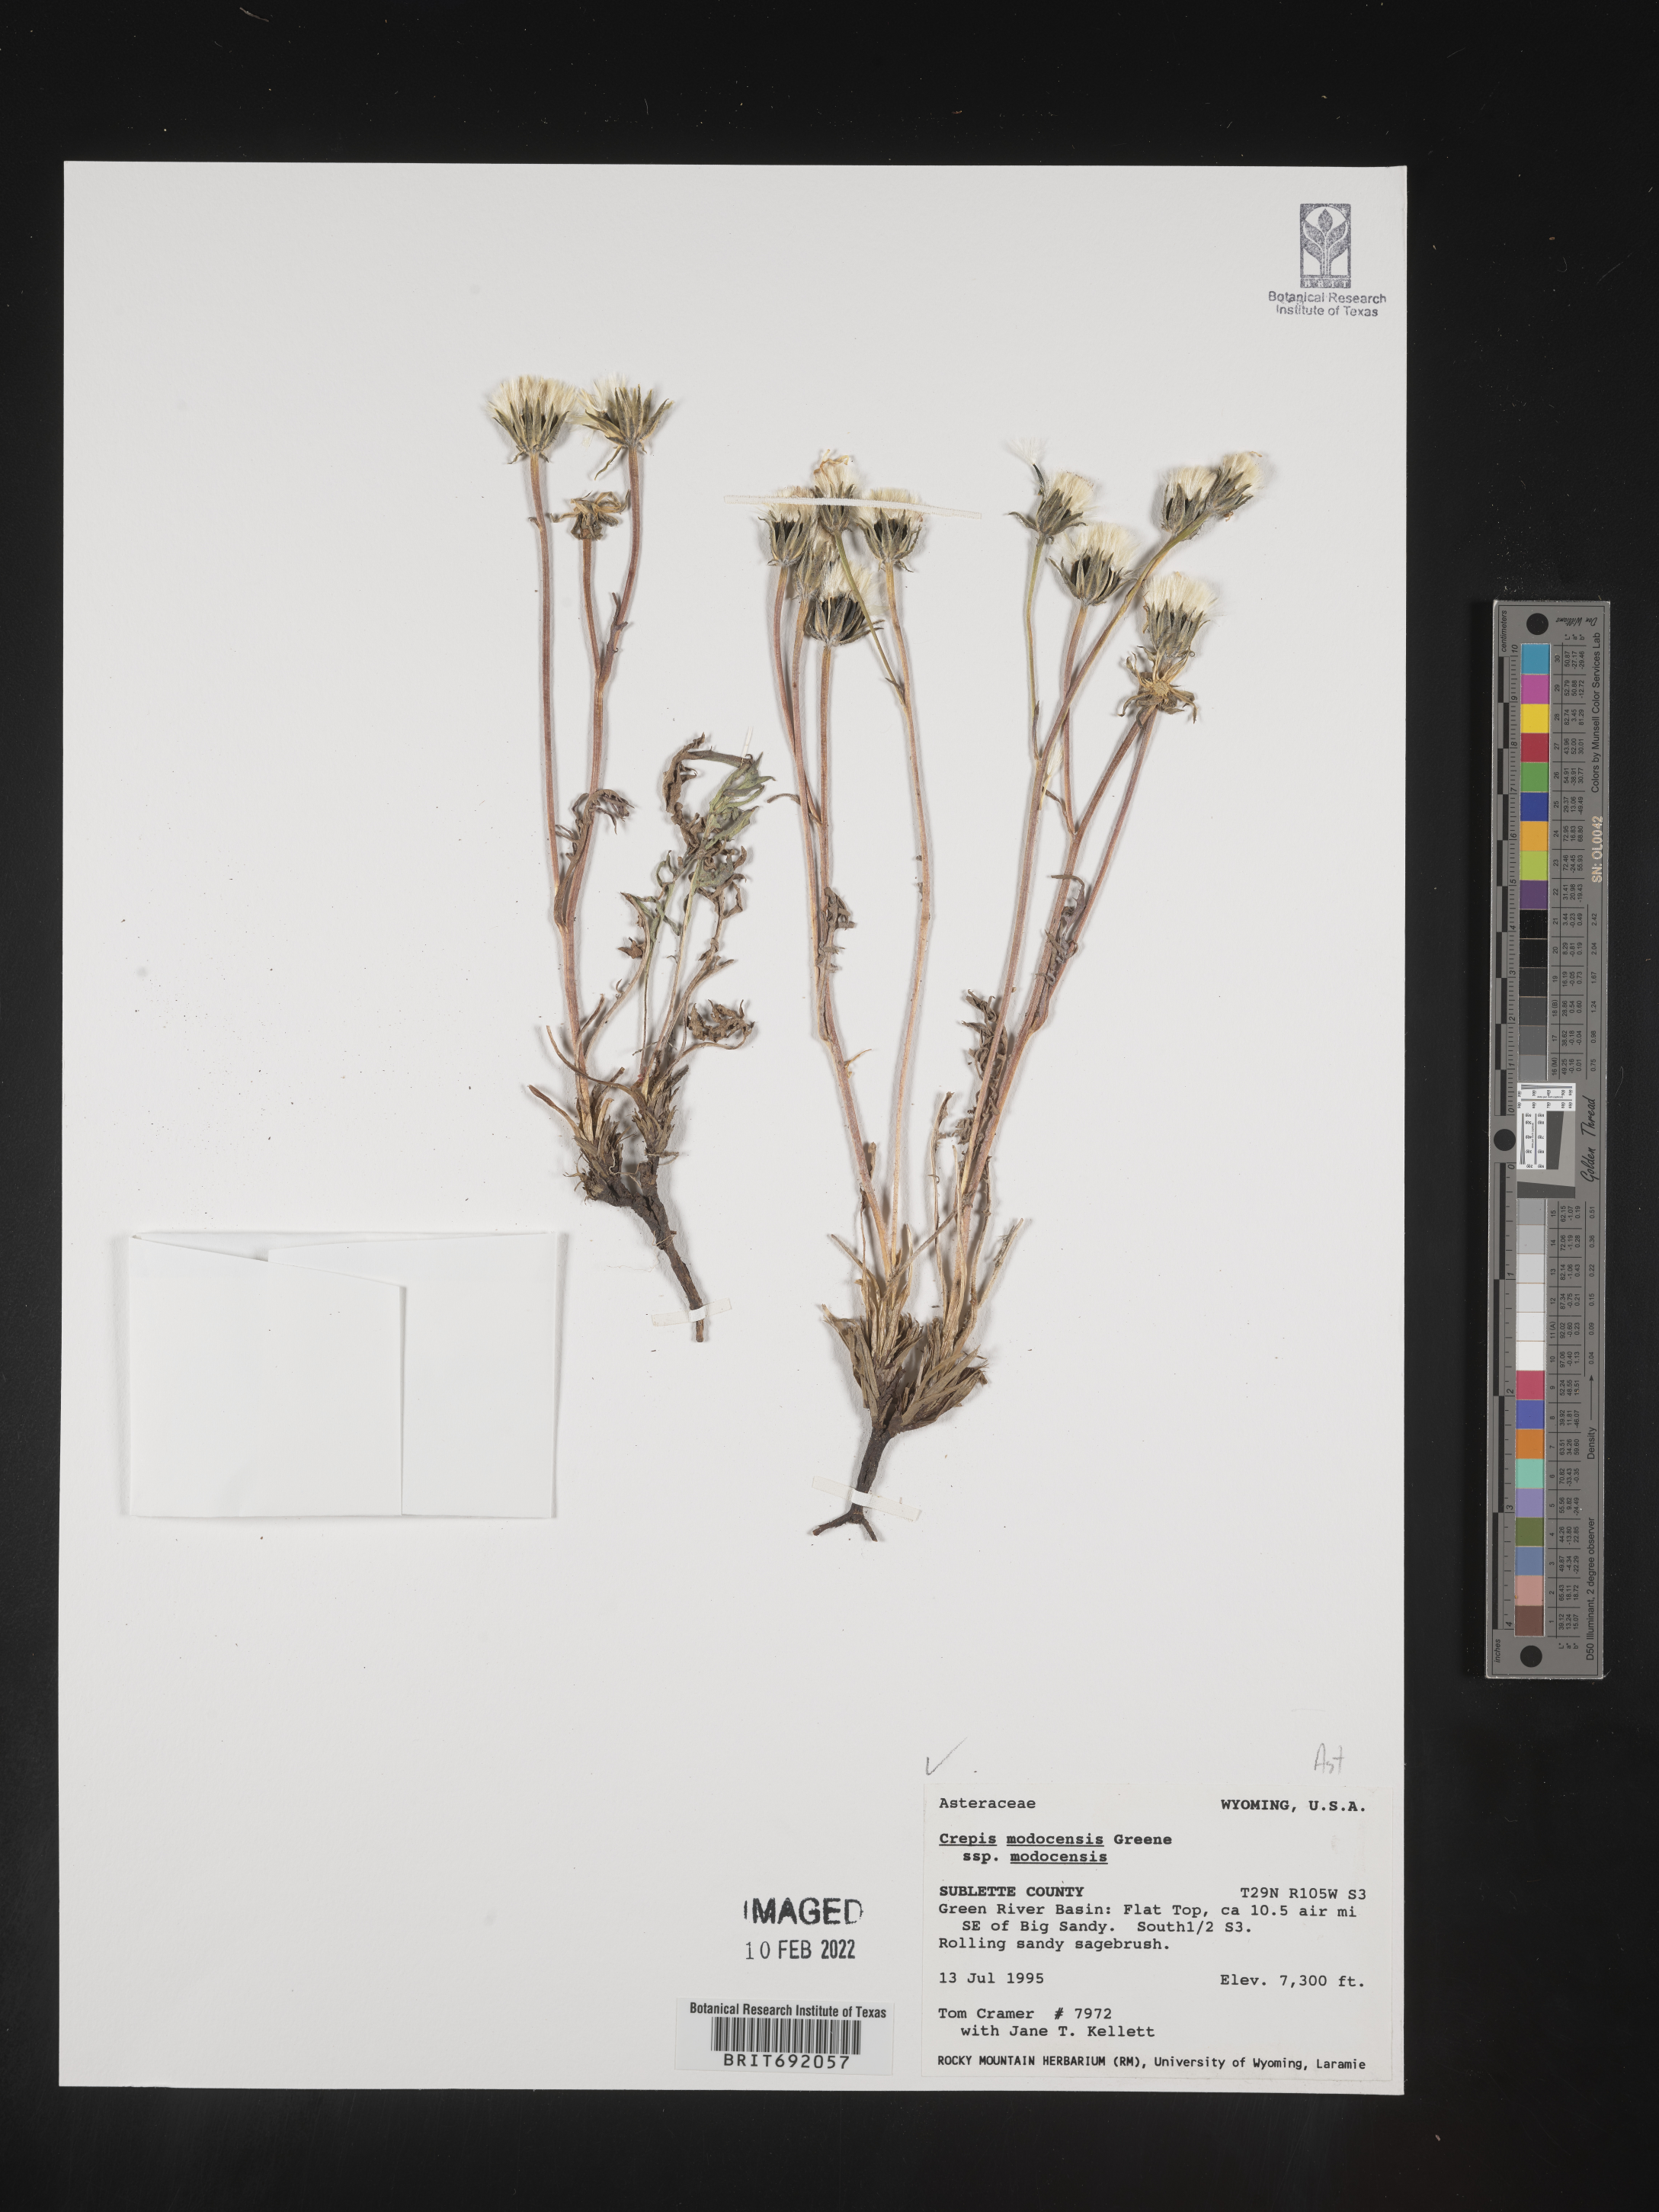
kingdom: Plantae
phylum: Tracheophyta
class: Magnoliopsida
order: Asterales
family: Asteraceae
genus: Crepis
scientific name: Crepis
